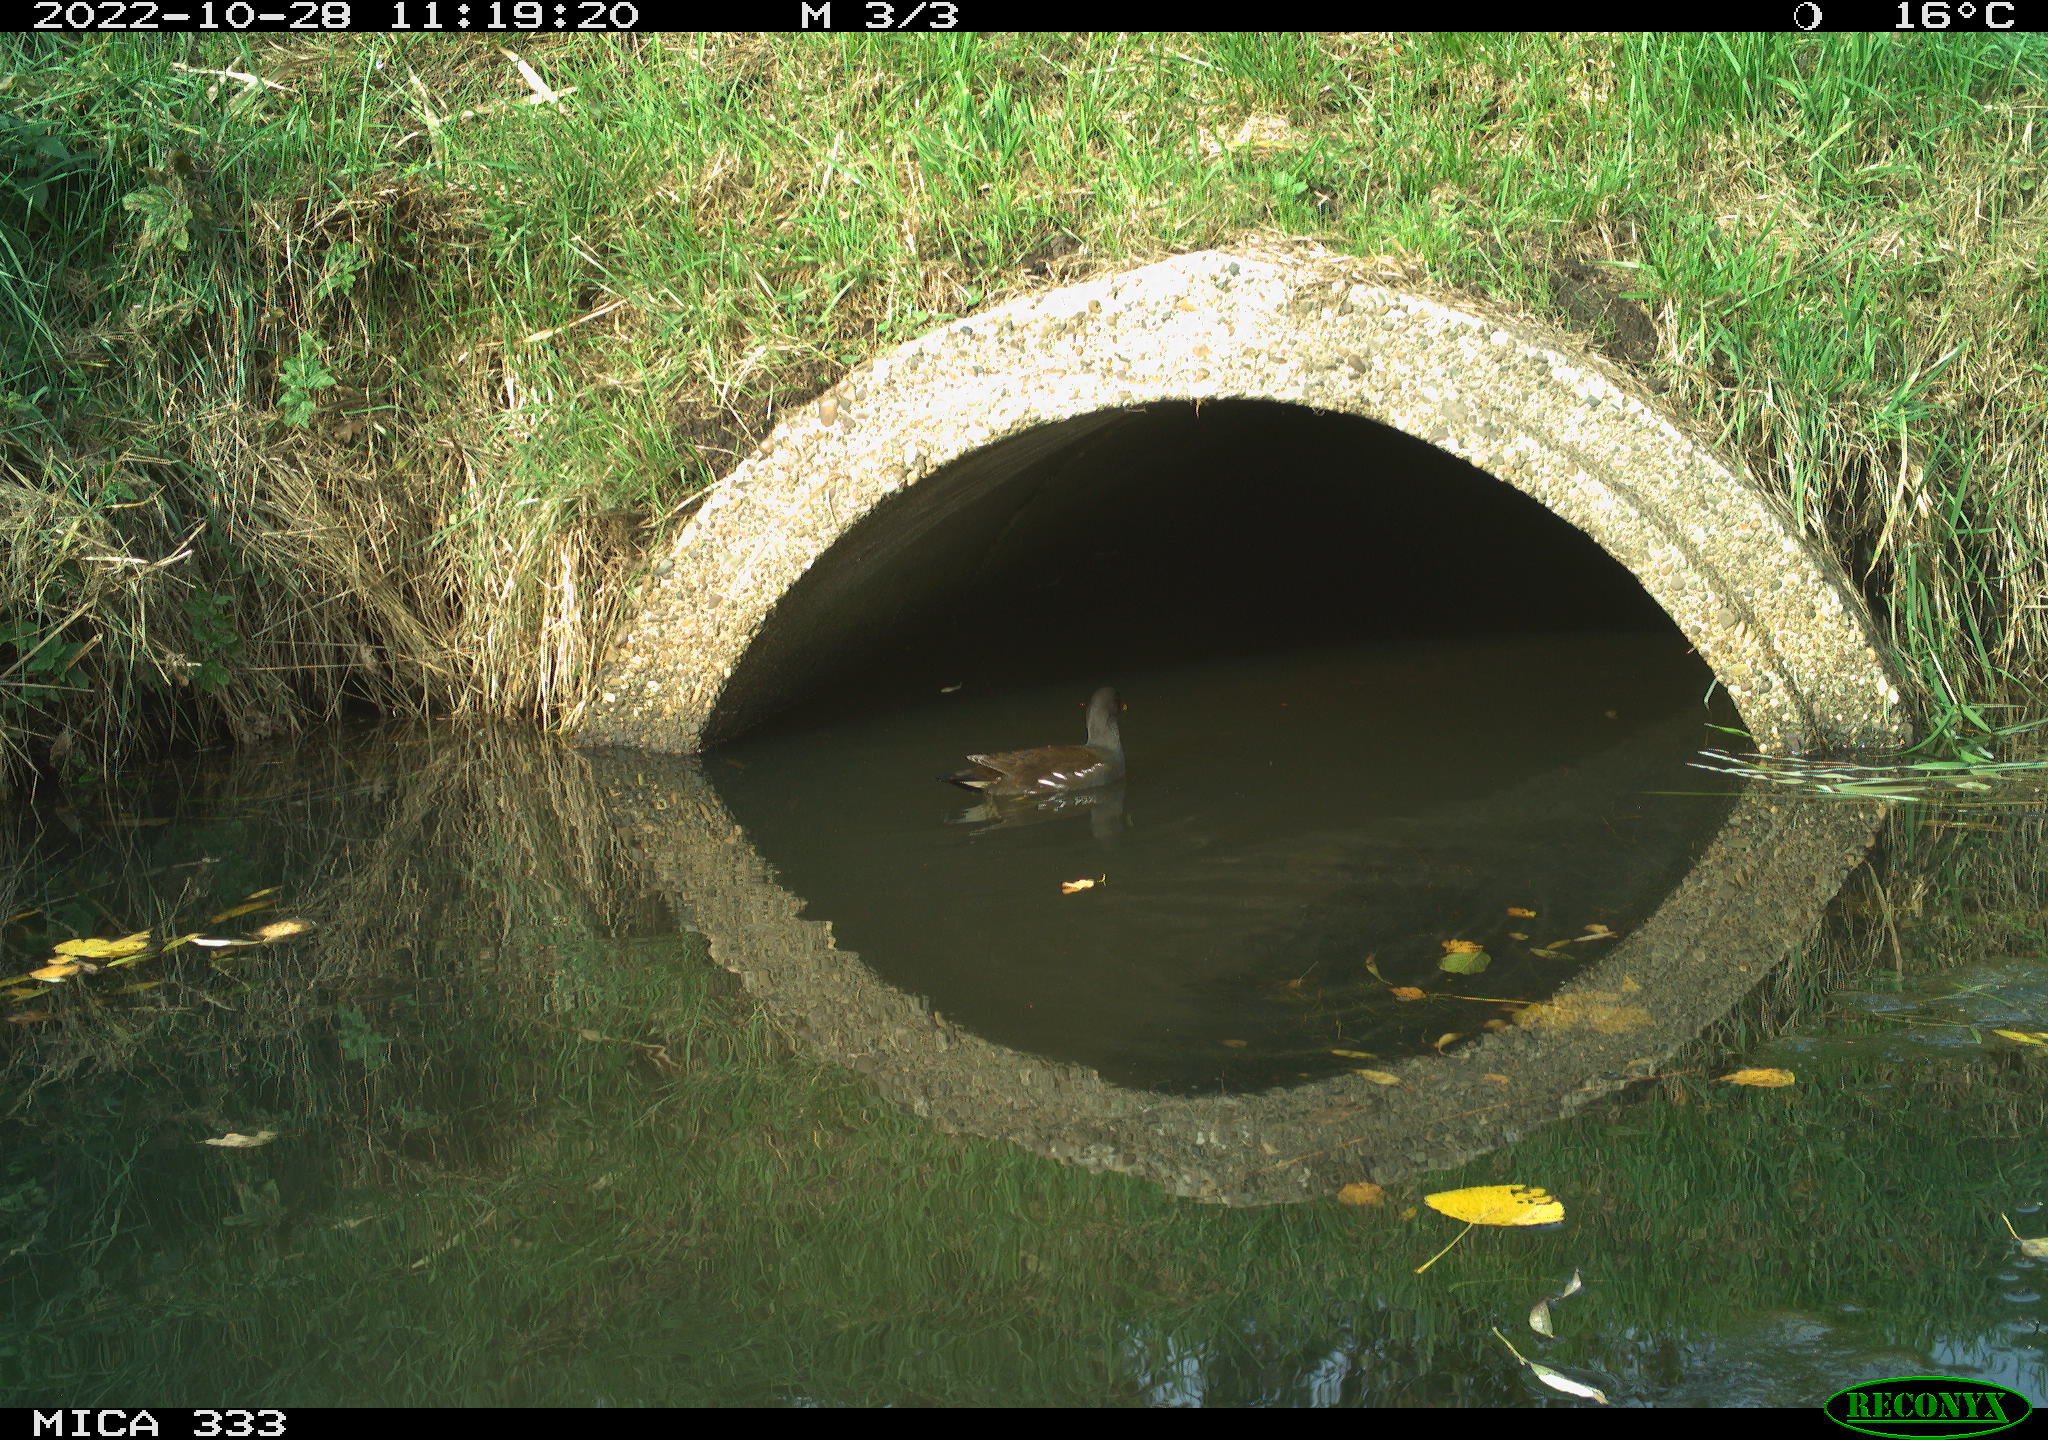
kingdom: Animalia
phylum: Chordata
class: Aves
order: Gruiformes
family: Rallidae
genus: Gallinula
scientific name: Gallinula chloropus
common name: Common moorhen
